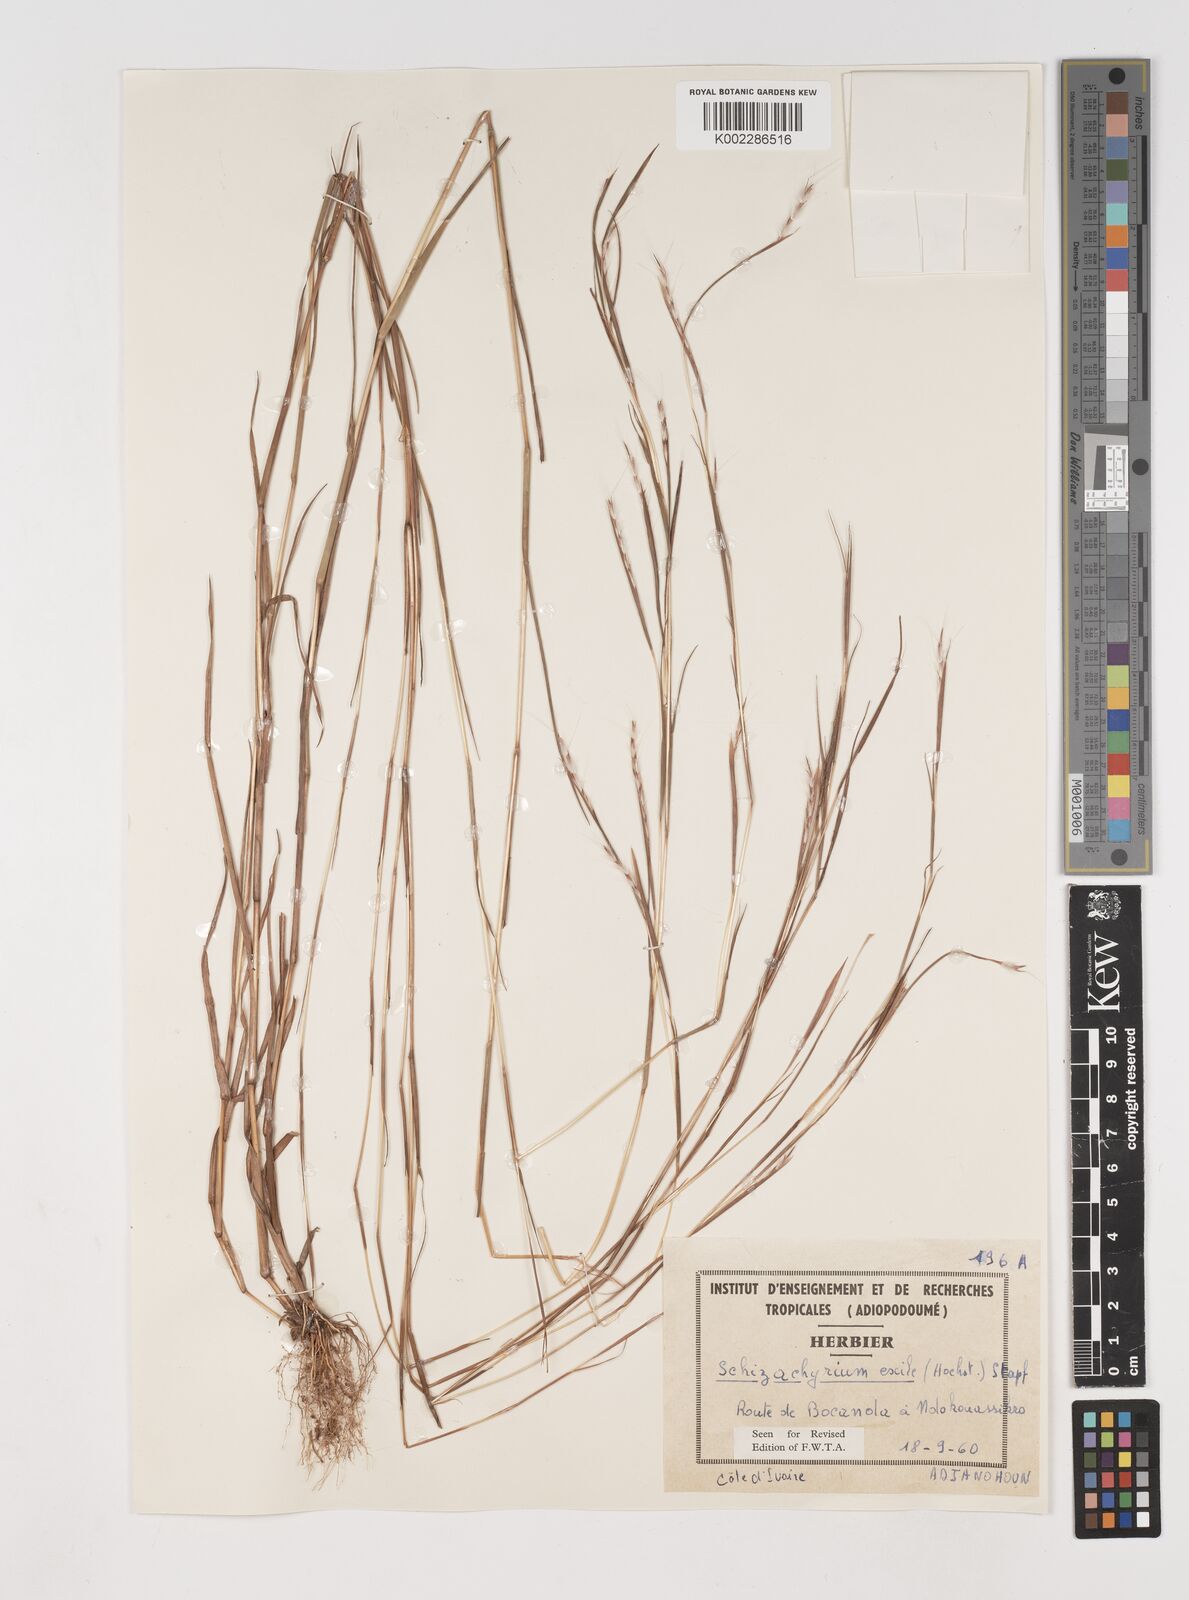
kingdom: Plantae
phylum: Tracheophyta
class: Liliopsida
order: Poales
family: Poaceae
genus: Schizachyrium
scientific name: Schizachyrium exile
